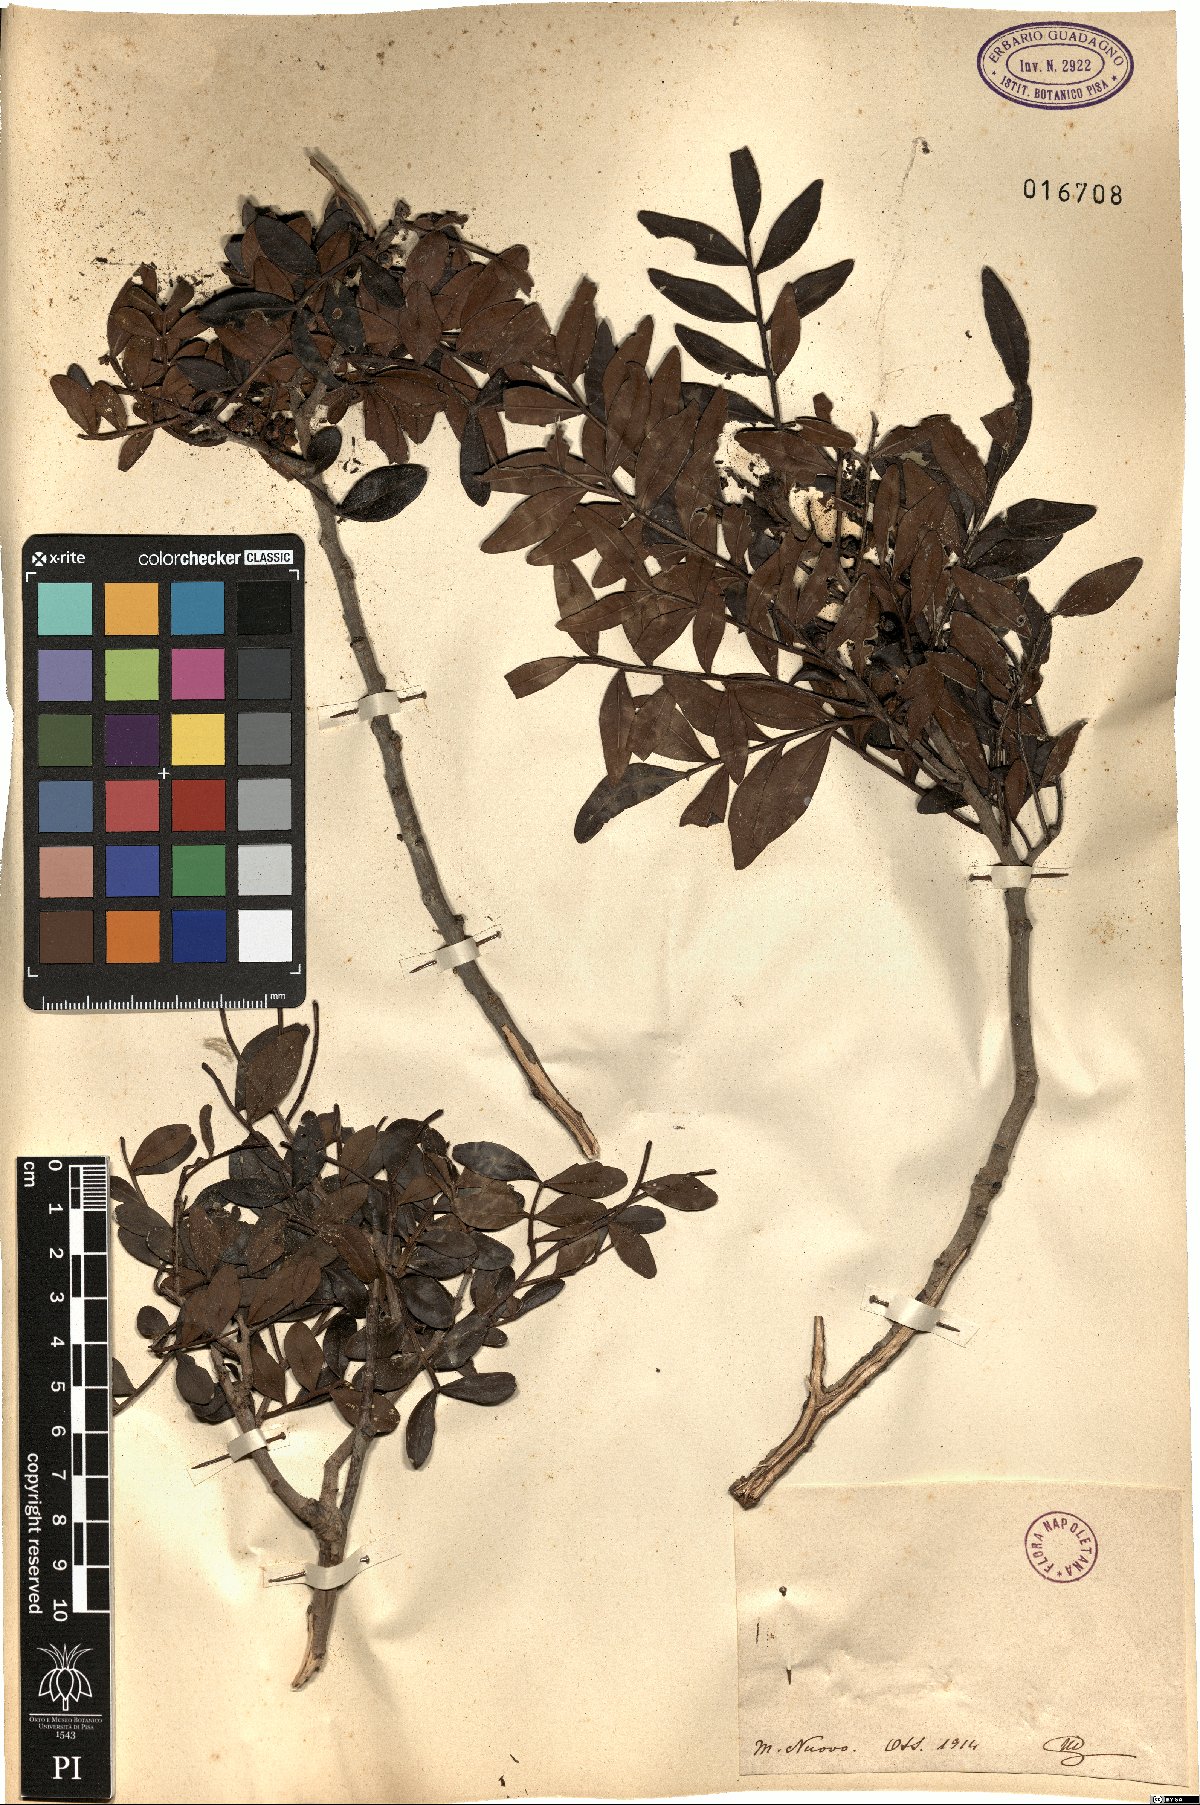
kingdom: Plantae
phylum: Tracheophyta
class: Magnoliopsida
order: Sapindales
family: Anacardiaceae
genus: Pistacia
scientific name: Pistacia
